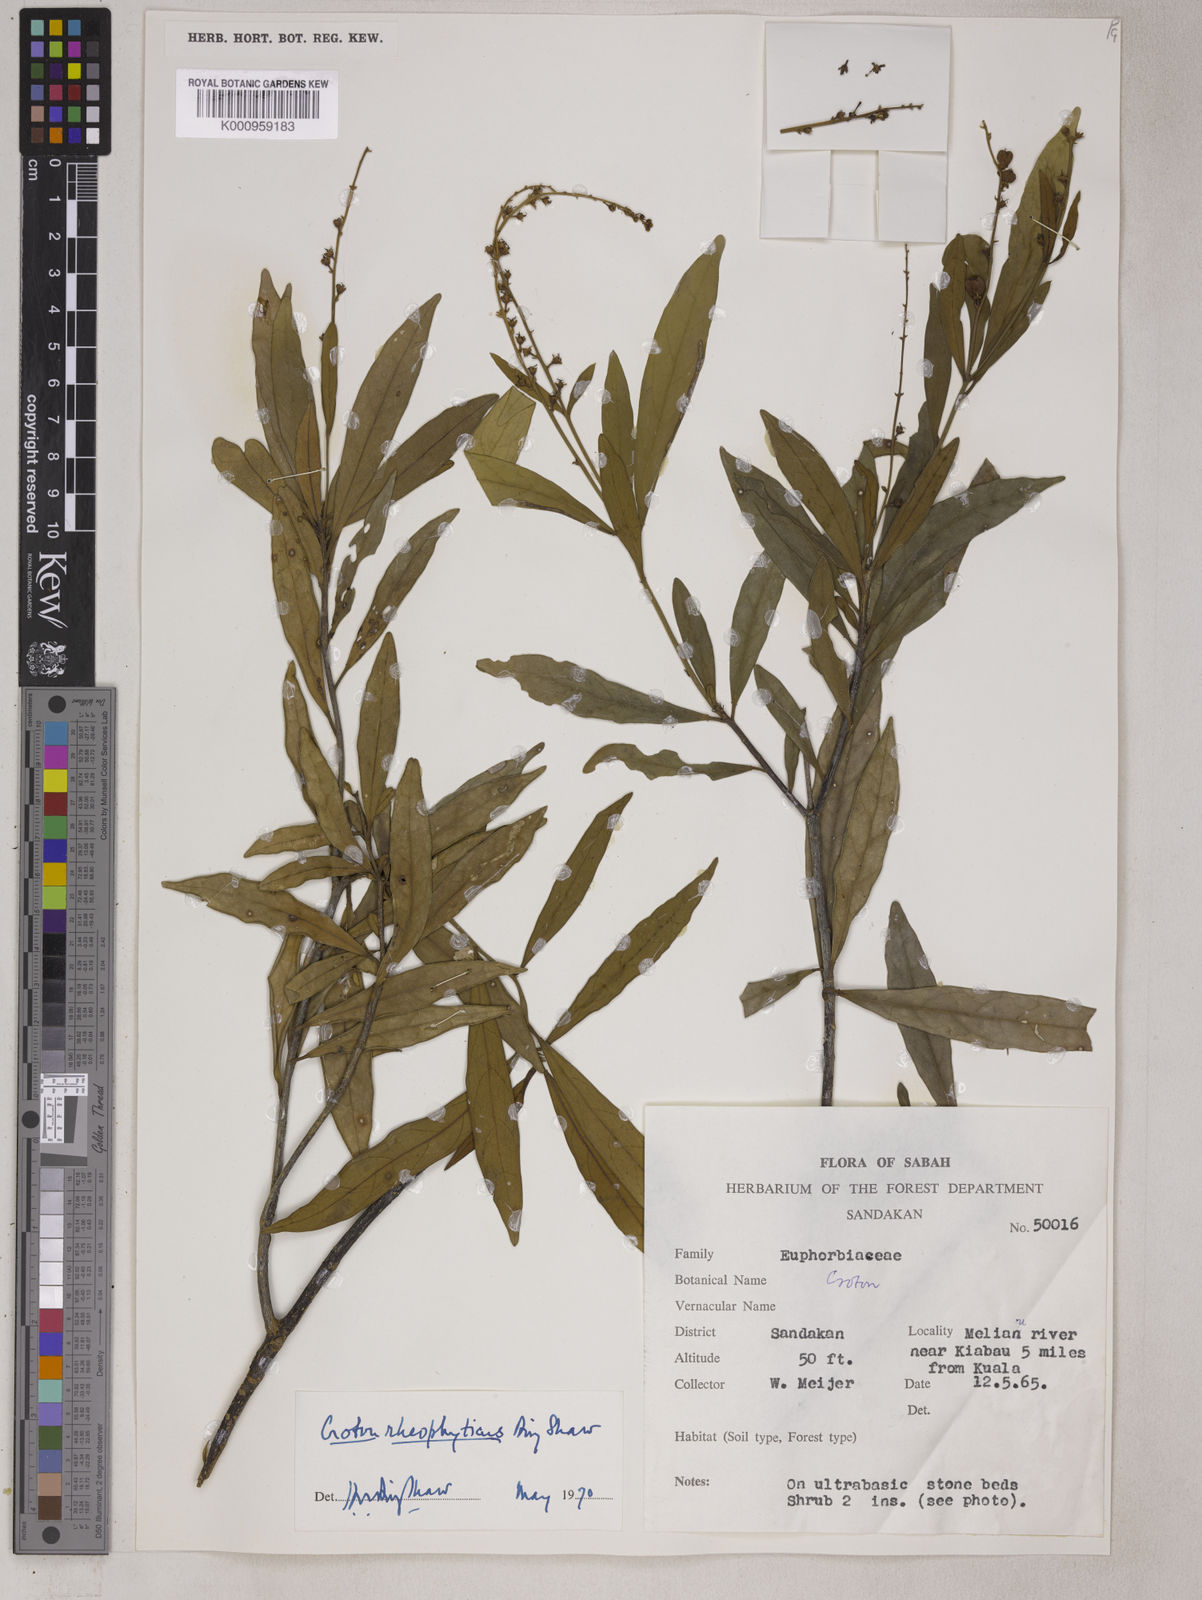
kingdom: Plantae
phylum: Tracheophyta
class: Magnoliopsida
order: Malpighiales
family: Euphorbiaceae
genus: Croton
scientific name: Croton rheophyticus
